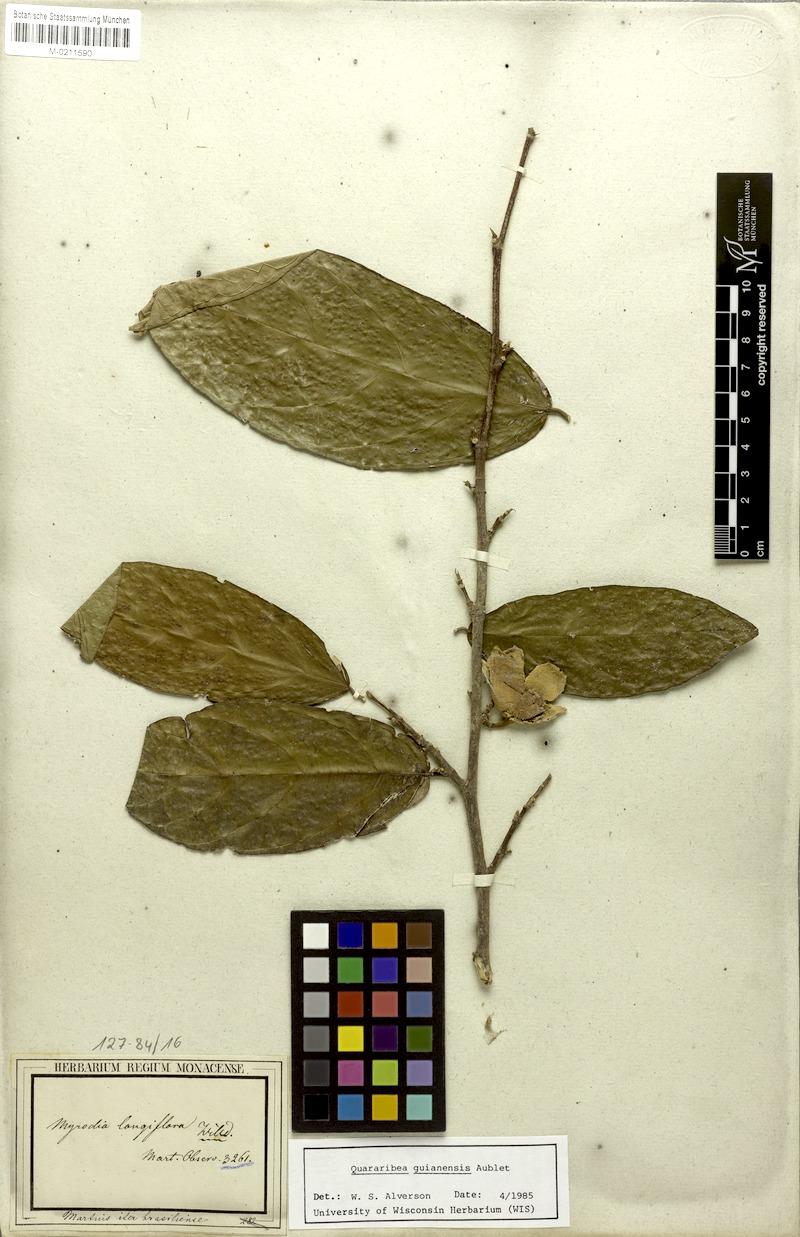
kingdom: Plantae
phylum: Tracheophyta
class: Magnoliopsida
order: Malvales
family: Malvaceae
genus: Quararibea
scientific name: Quararibea guianensis
